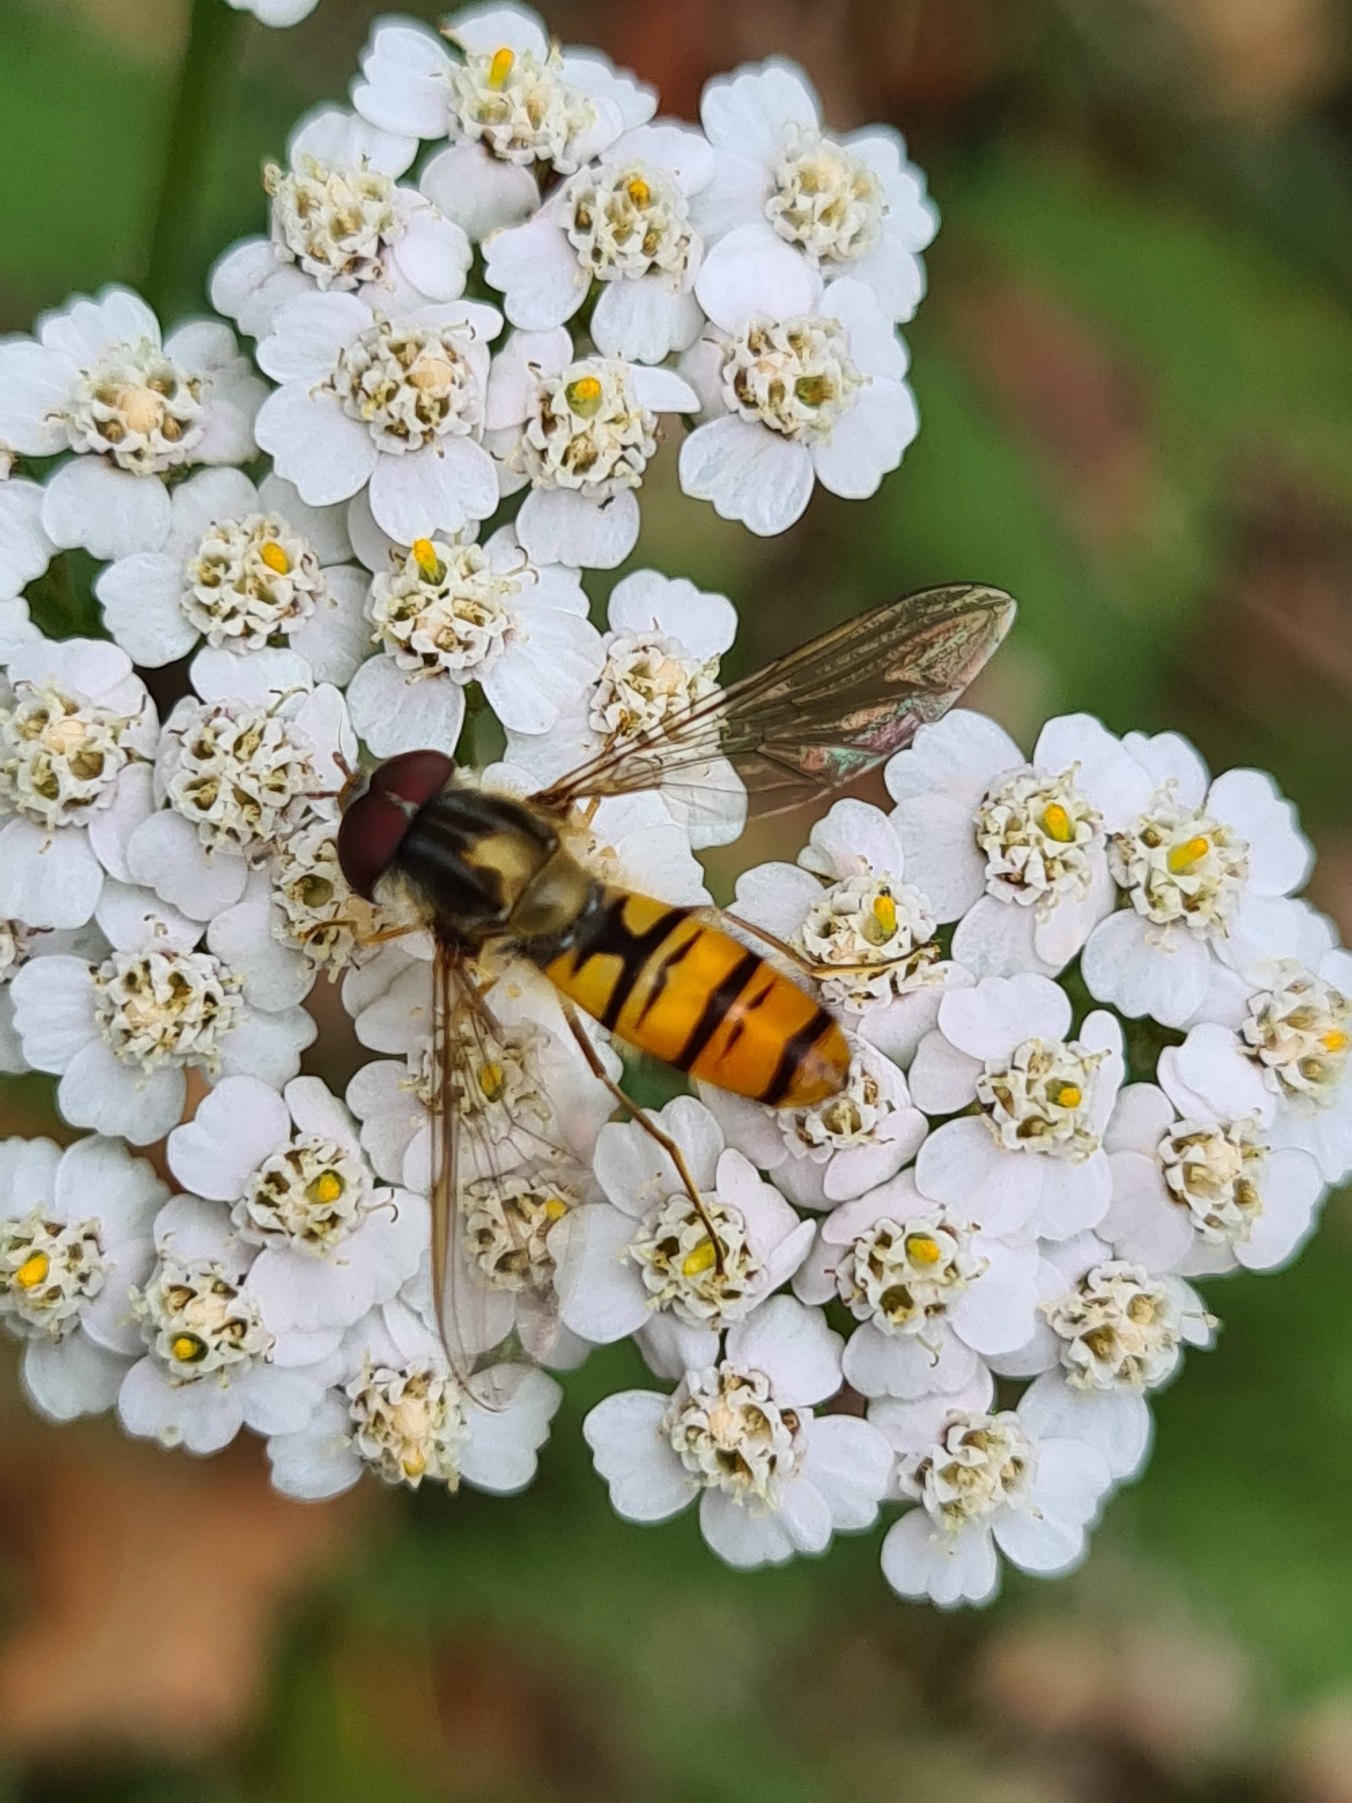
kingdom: Animalia
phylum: Arthropoda
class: Insecta
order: Diptera
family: Syrphidae
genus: Episyrphus
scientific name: Episyrphus balteatus
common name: Dobbeltbåndet svirreflue
